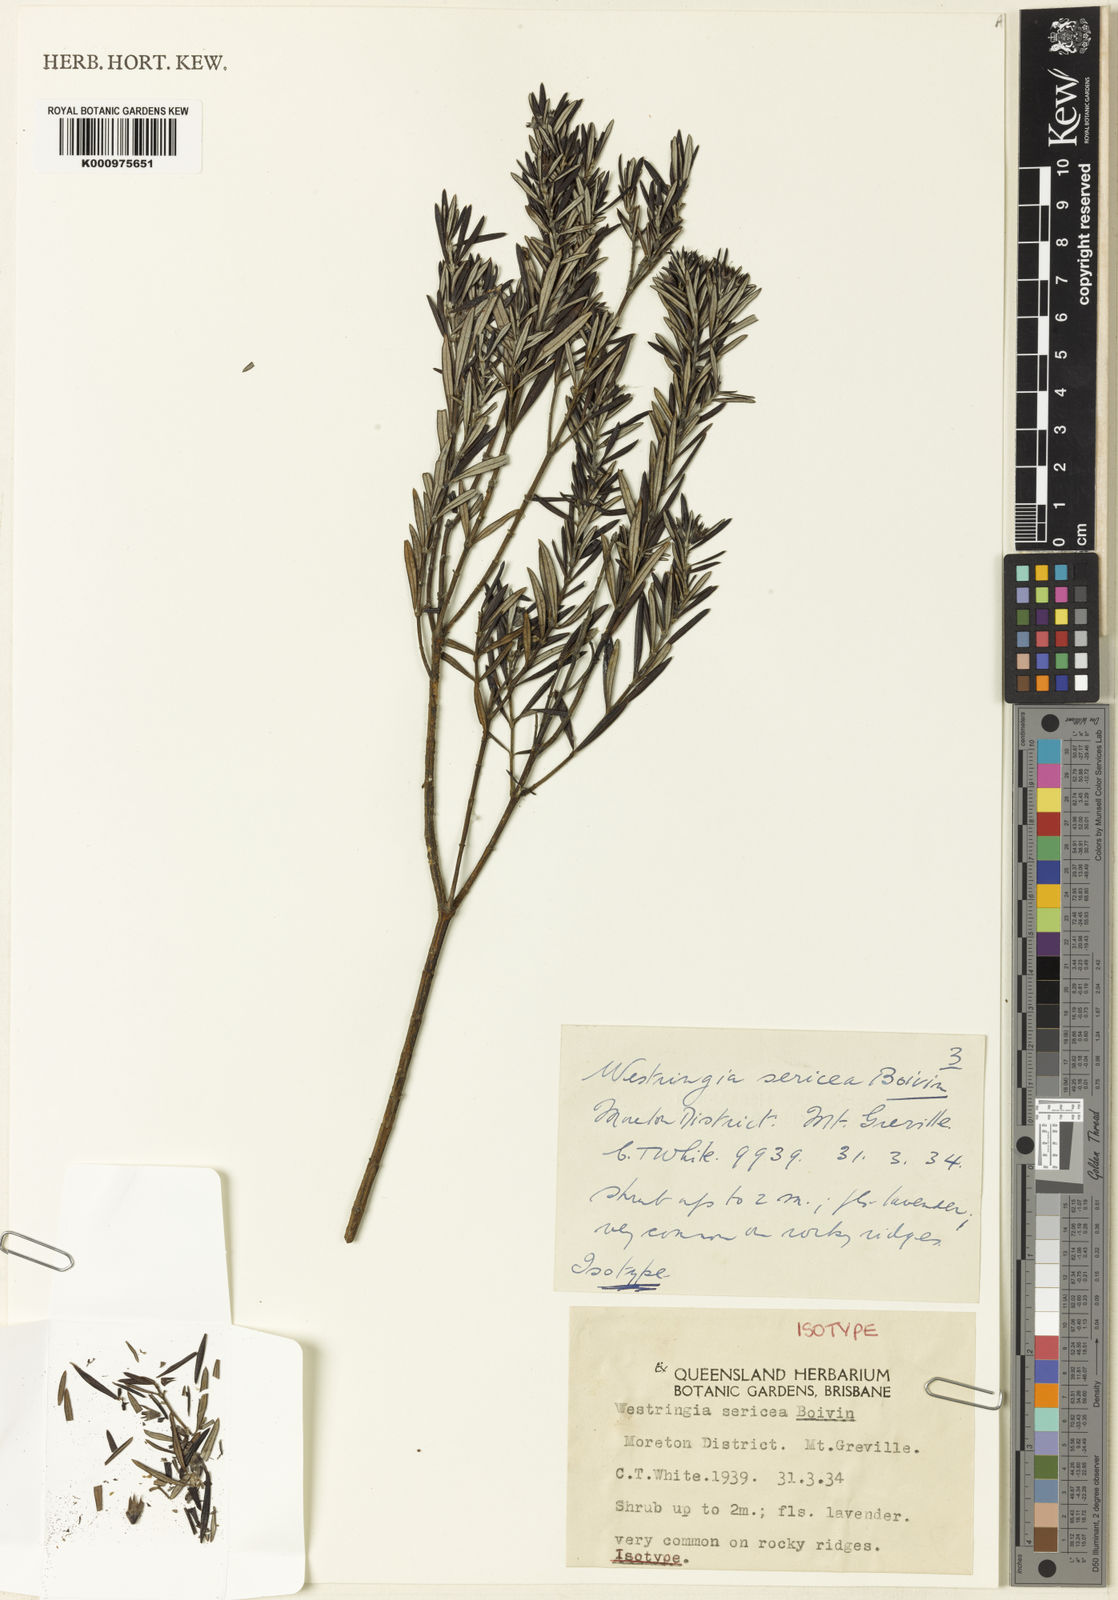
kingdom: Plantae
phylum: Tracheophyta
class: Magnoliopsida
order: Lamiales
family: Lamiaceae
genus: Westringia
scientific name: Westringia sericea
